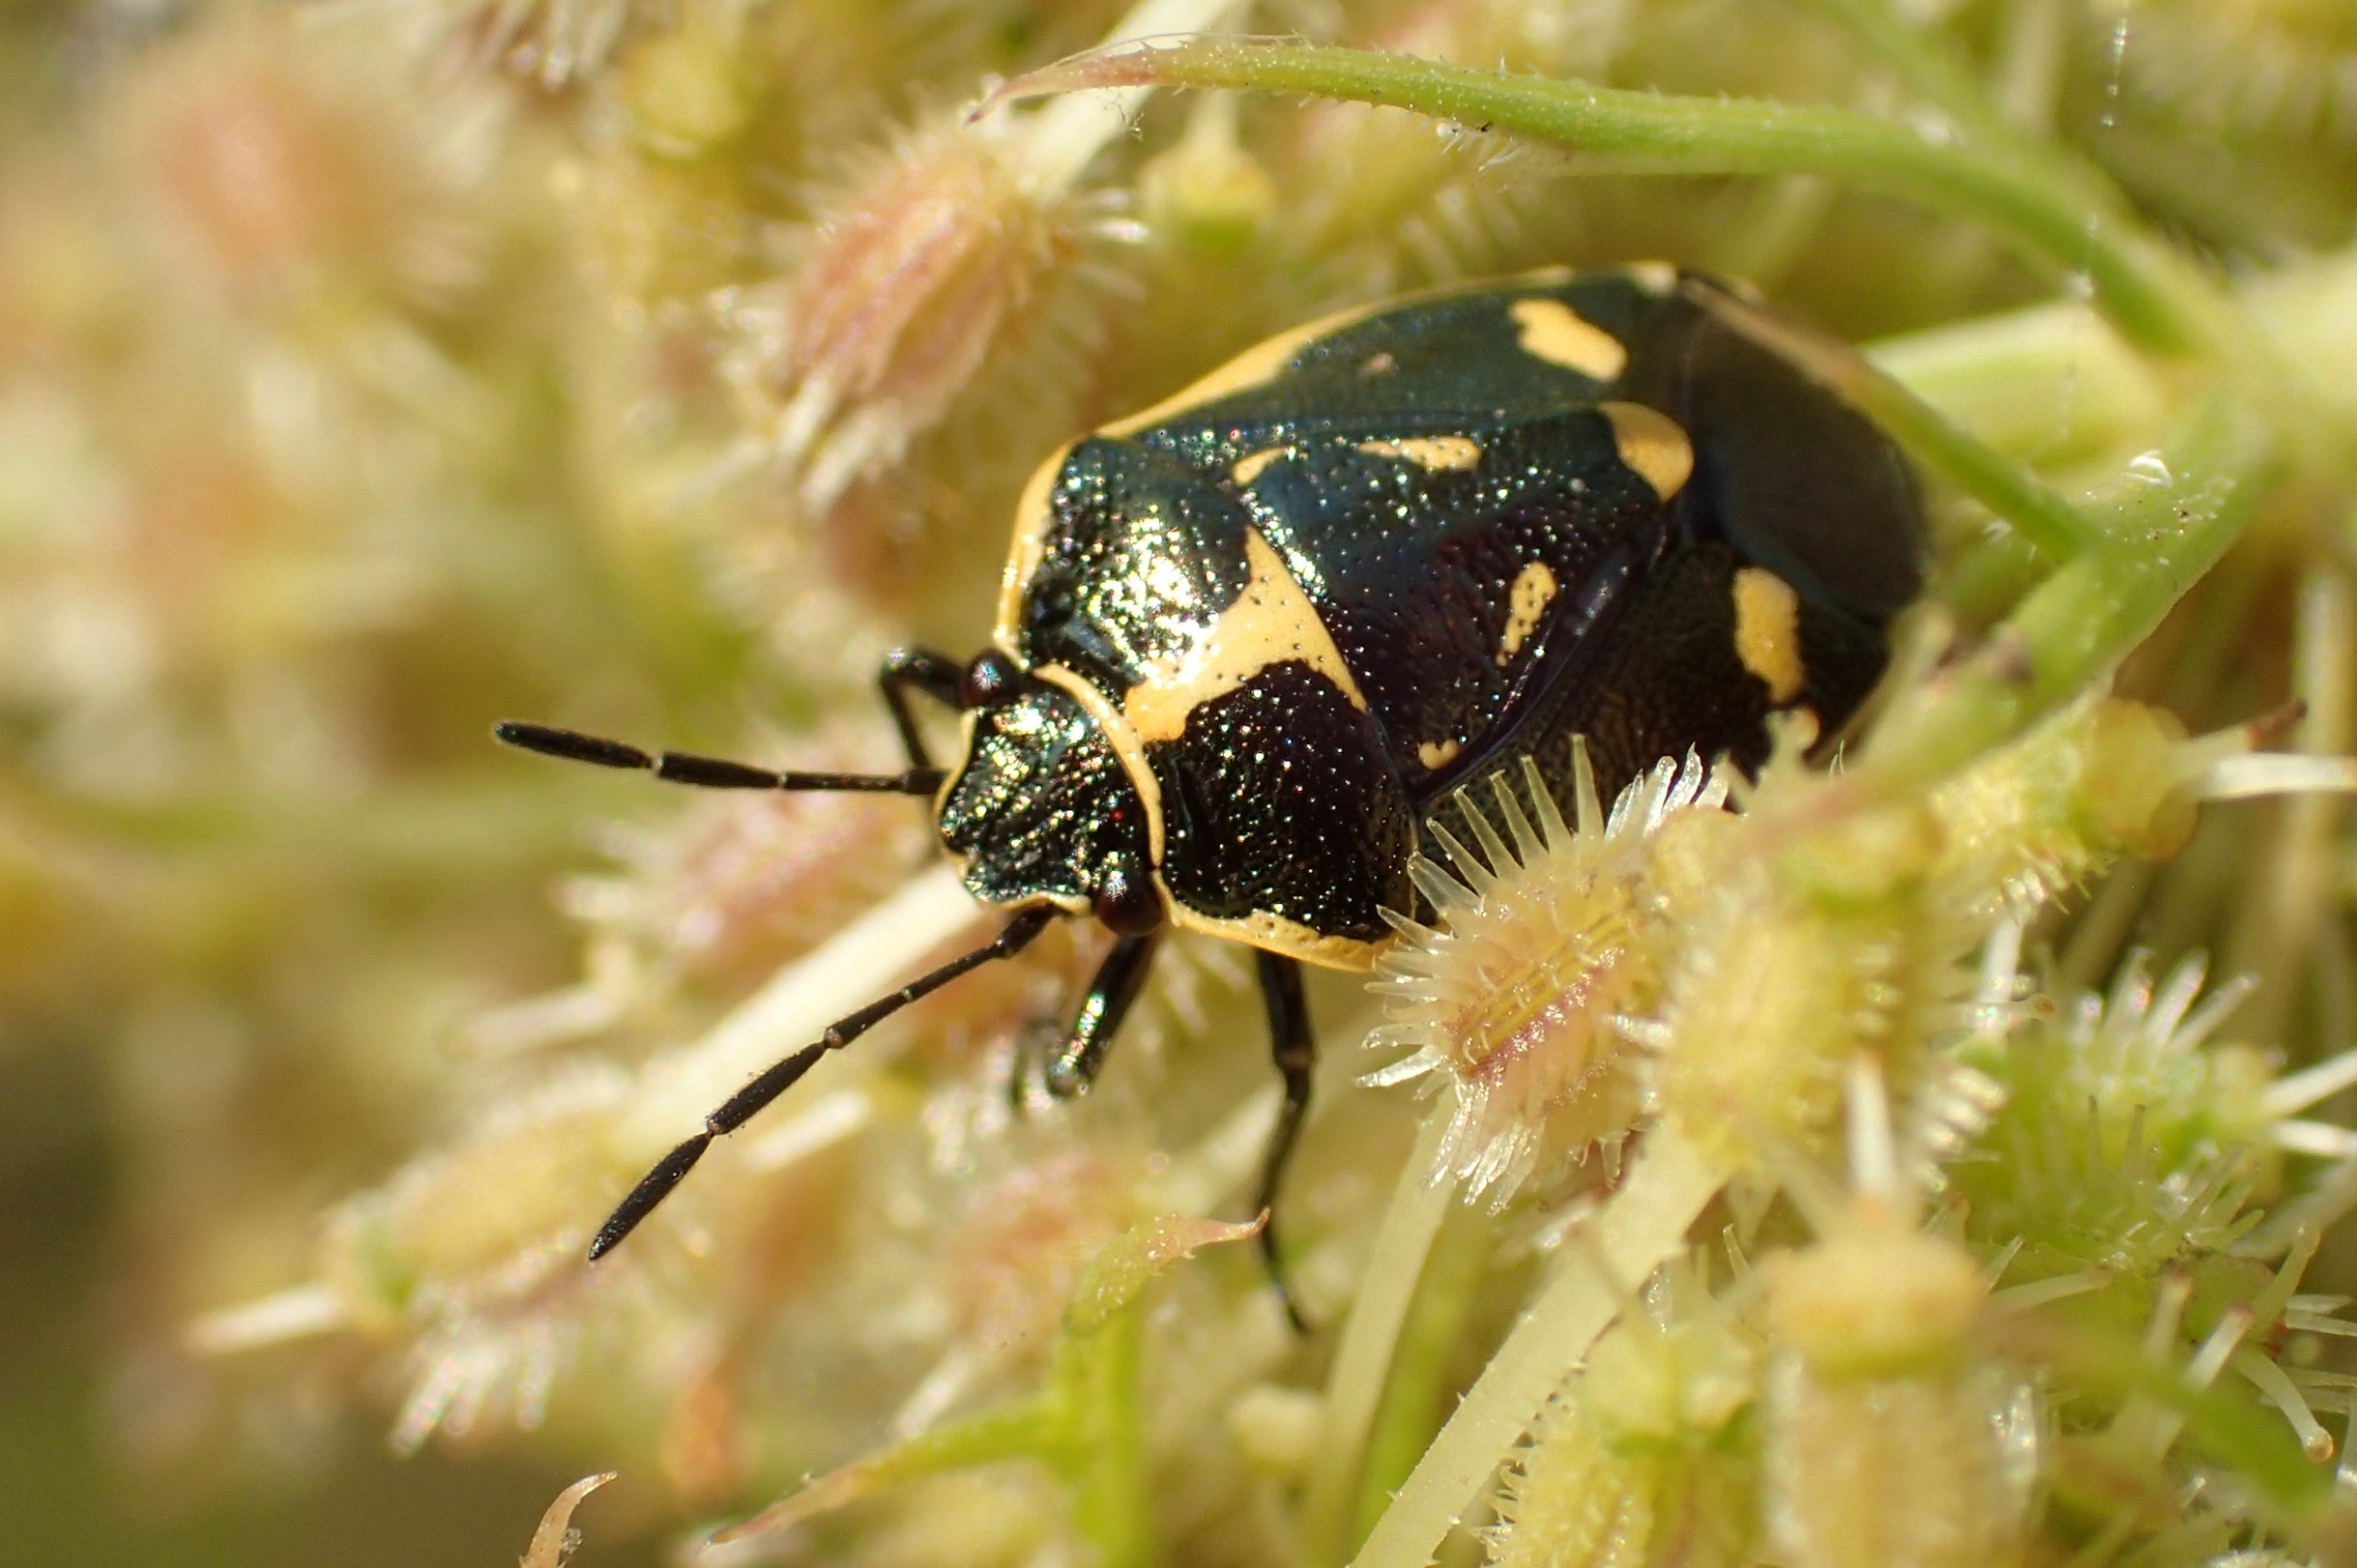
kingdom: Animalia
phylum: Arthropoda
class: Insecta
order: Hemiptera
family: Pentatomidae
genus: Eurydema
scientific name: Eurydema oleracea
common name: Almindelig kåltæge
